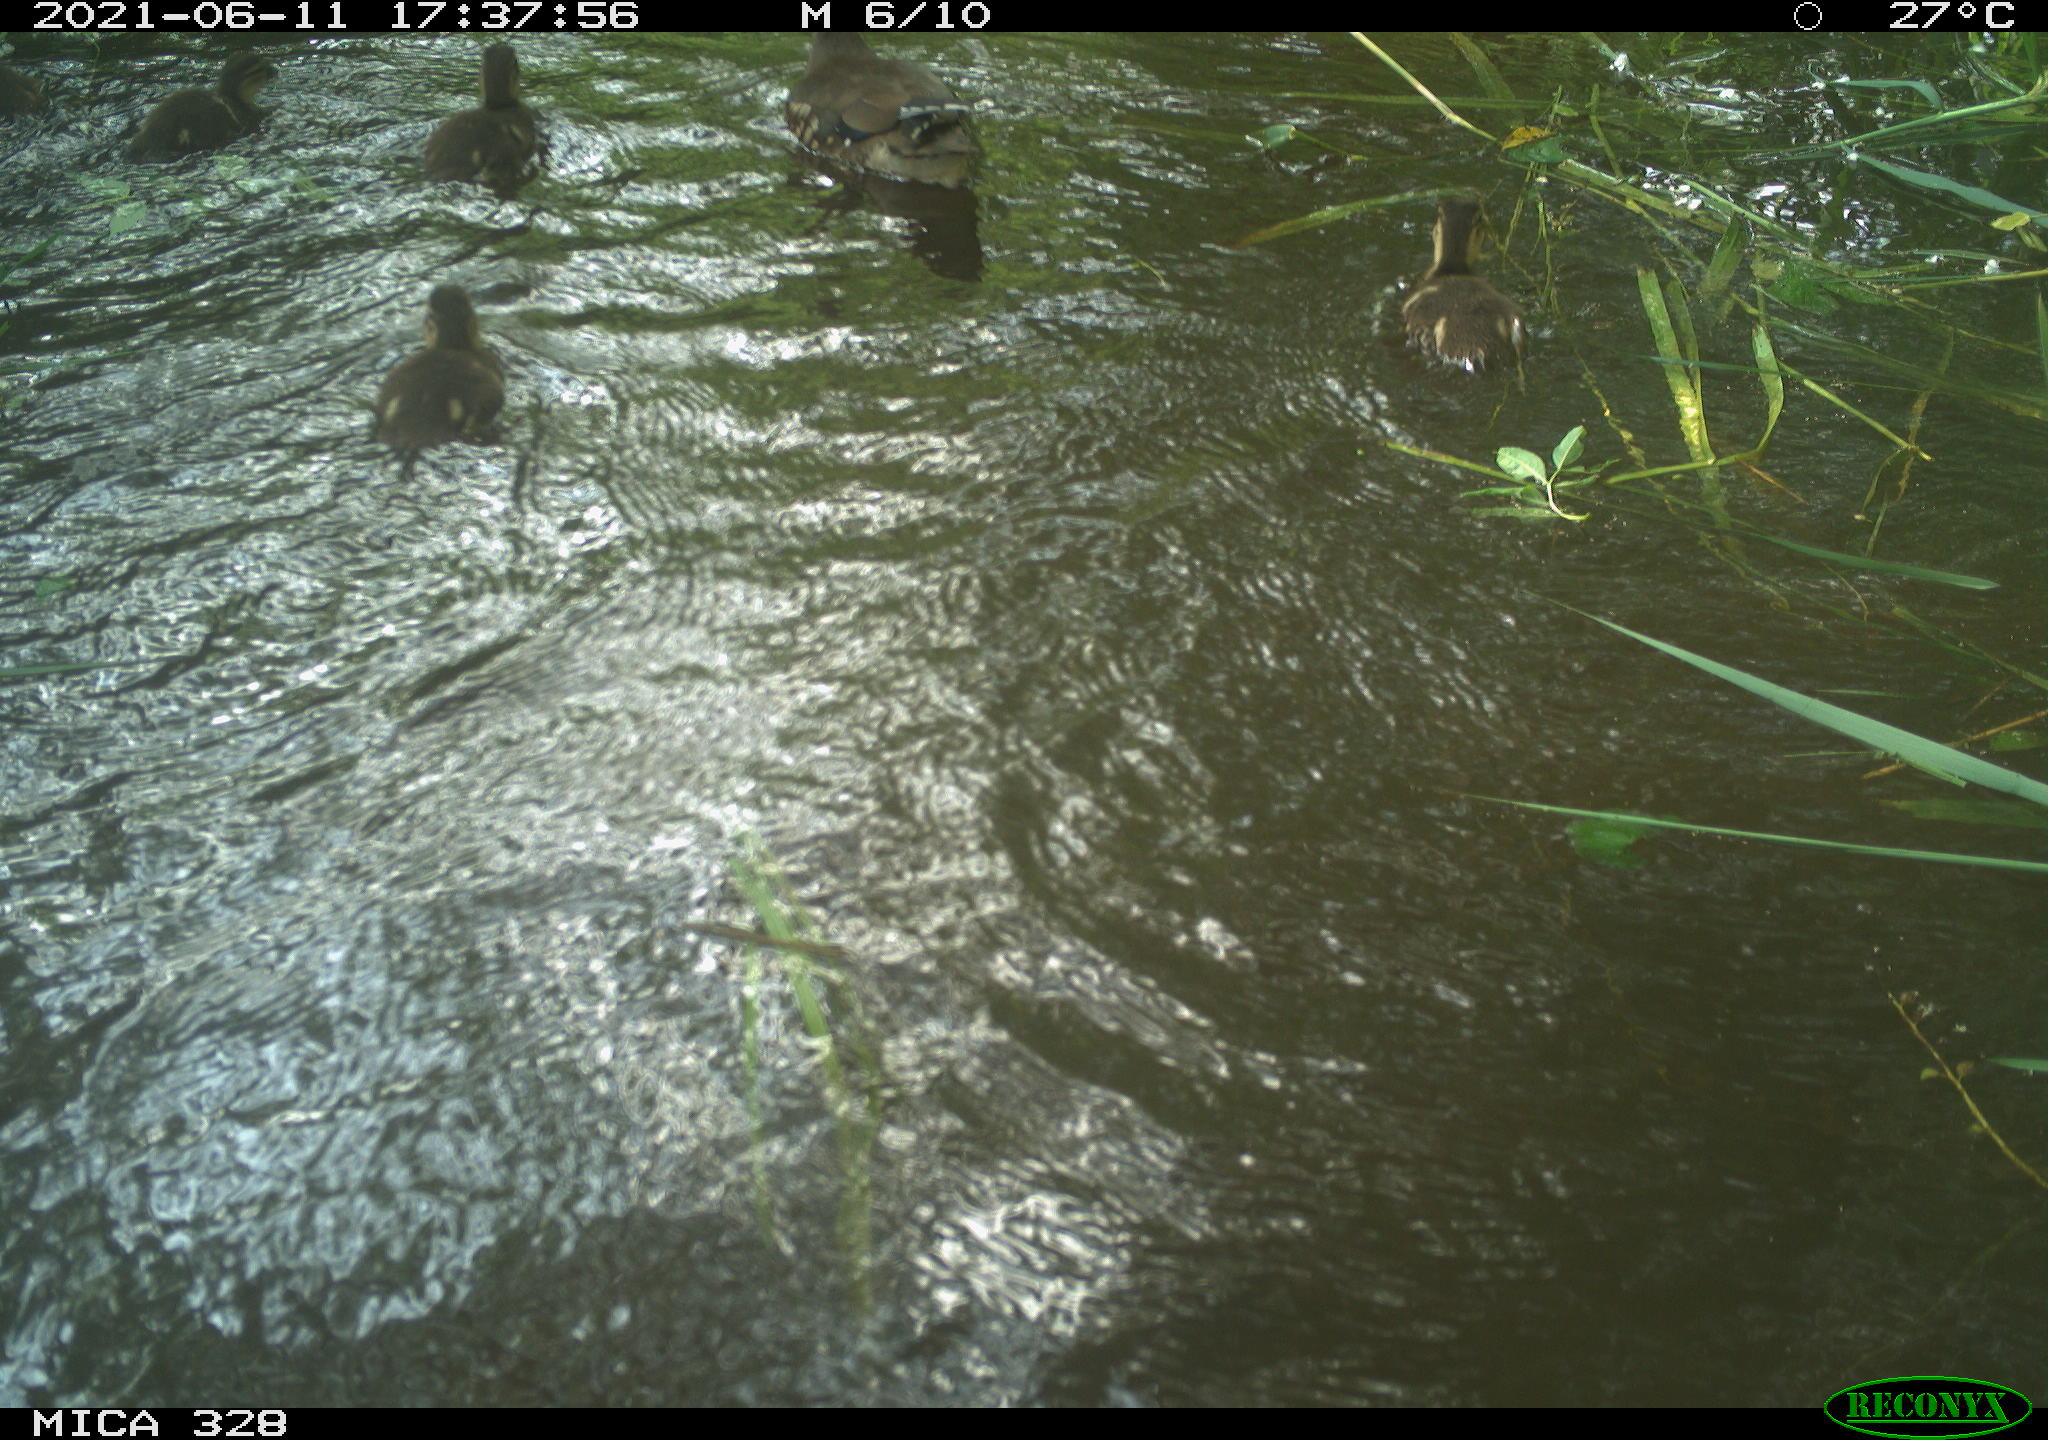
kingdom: Animalia
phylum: Chordata
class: Aves
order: Anseriformes
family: Anatidae
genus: Aix
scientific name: Aix galericulata
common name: Mandarin duck
